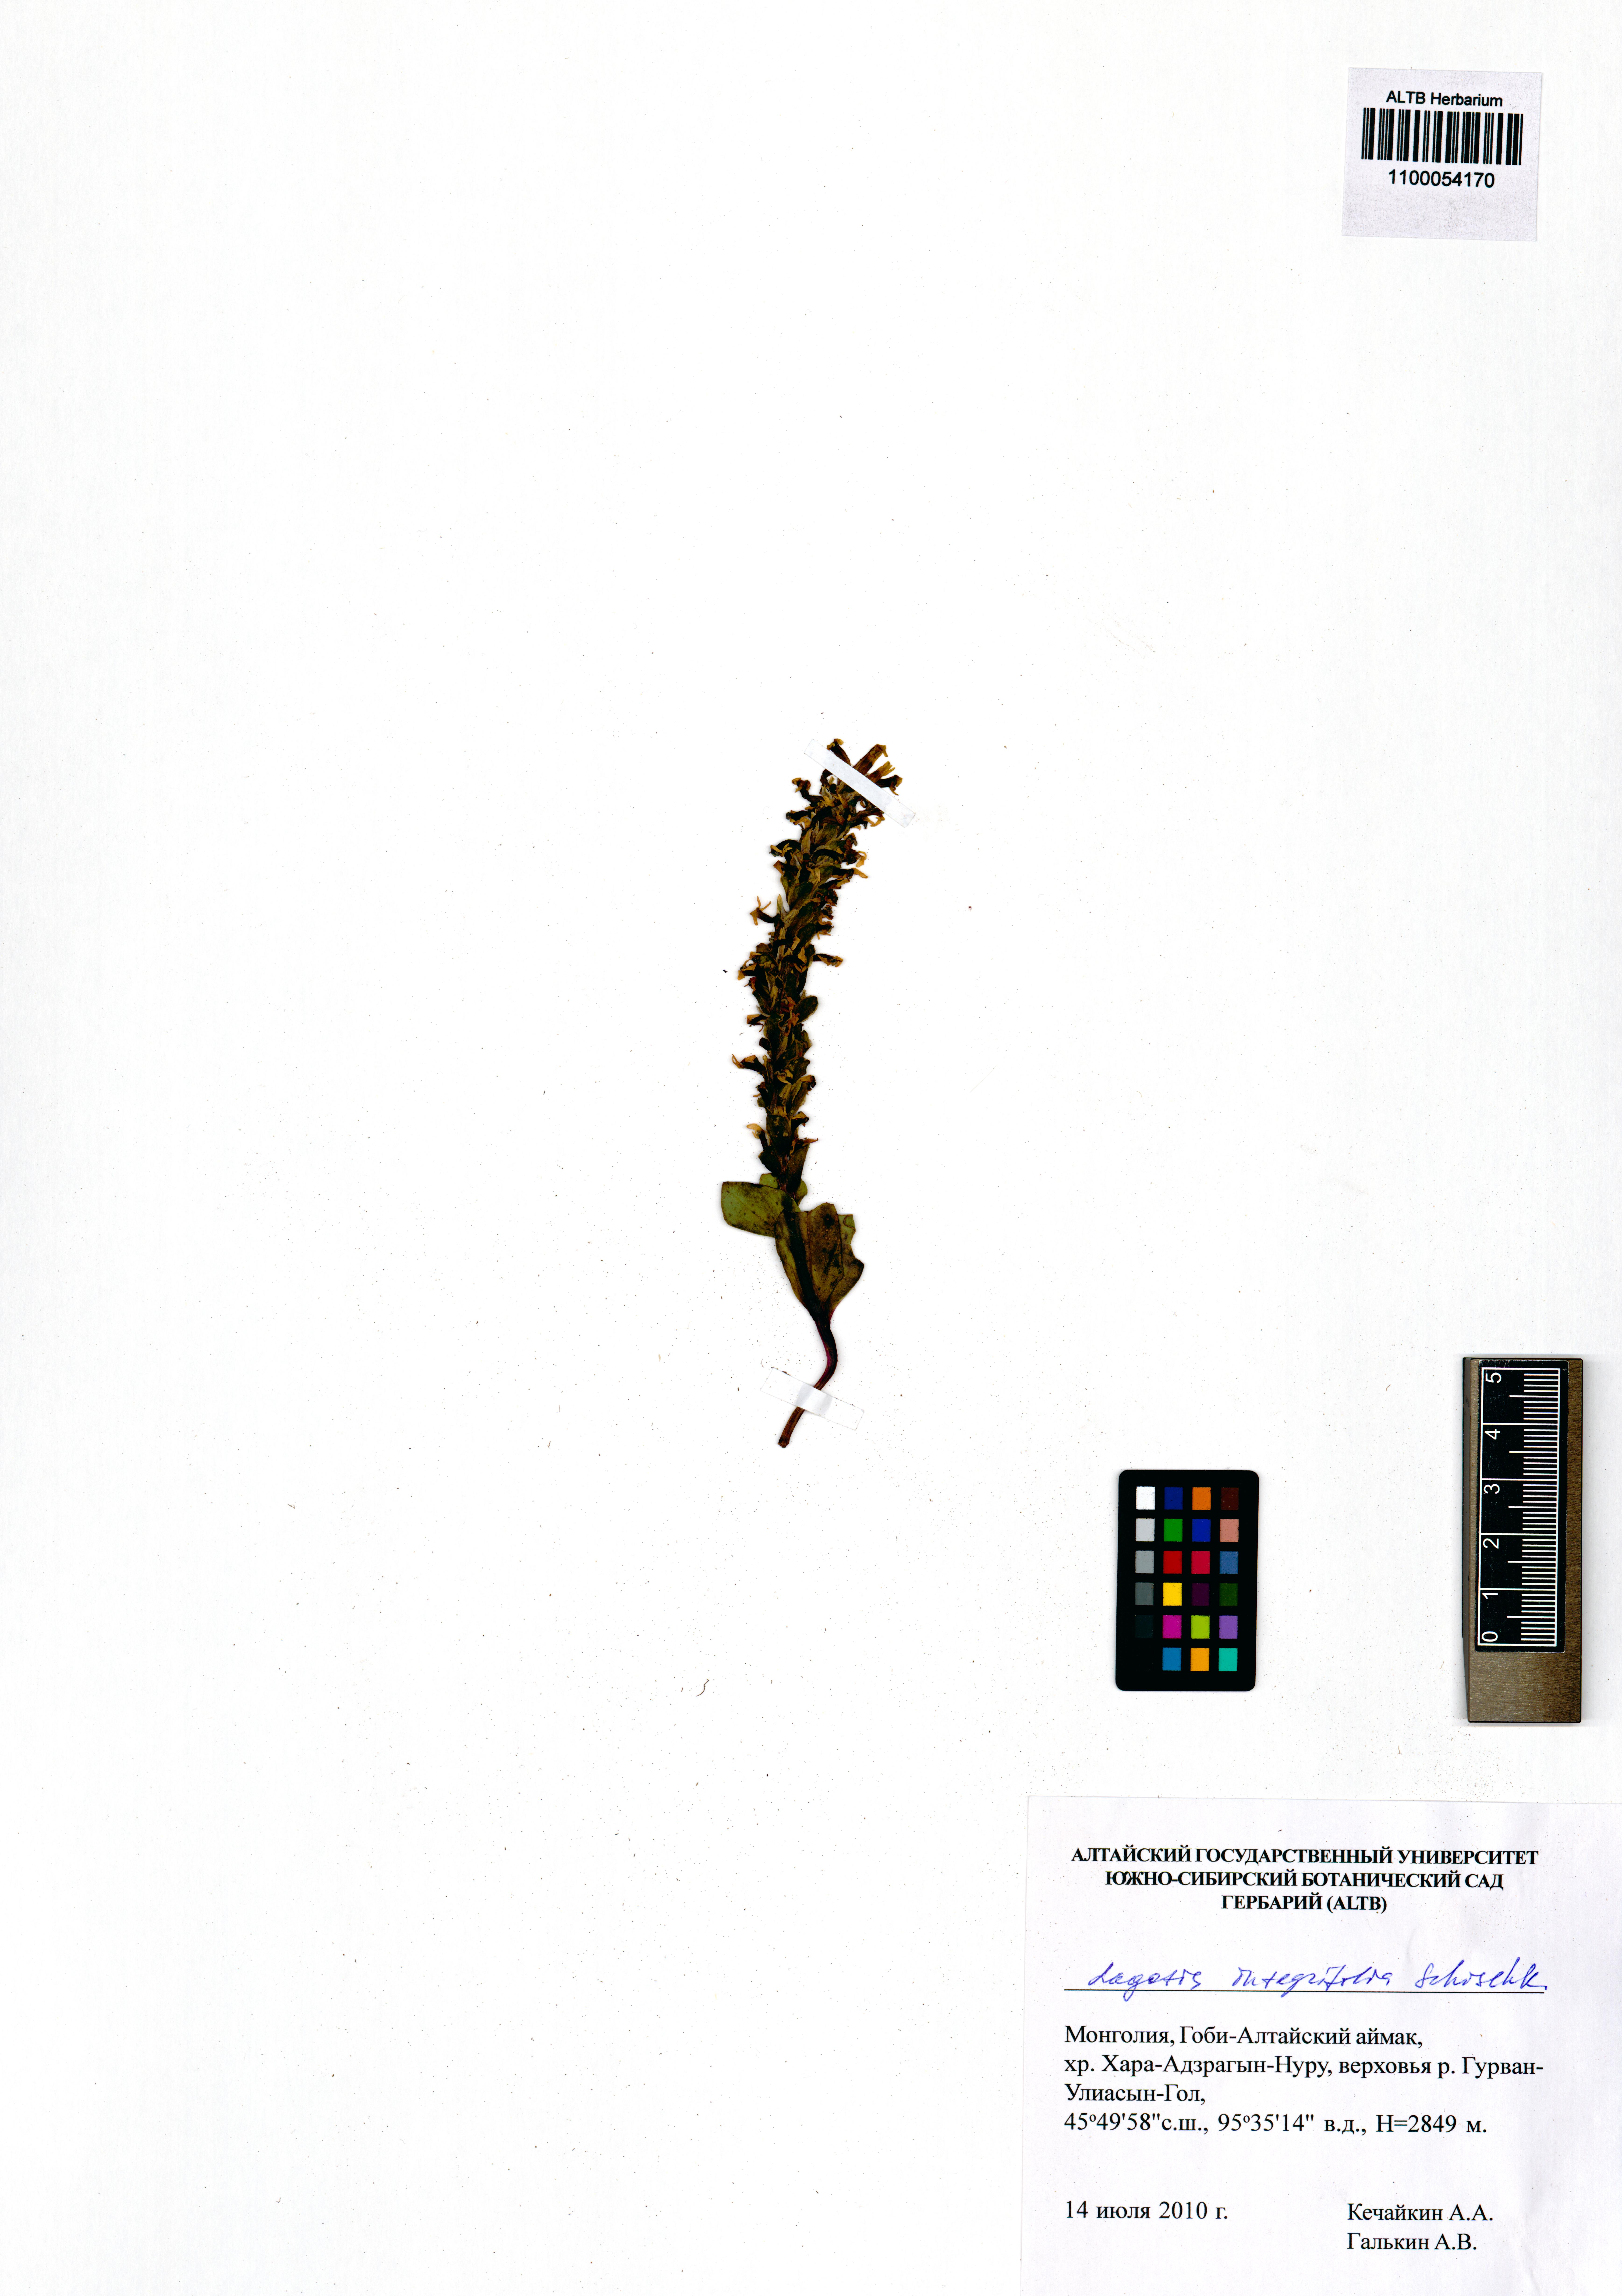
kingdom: Plantae
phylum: Tracheophyta
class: Magnoliopsida
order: Lamiales
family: Plantaginaceae
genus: Lagotis
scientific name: Lagotis integrifolia
